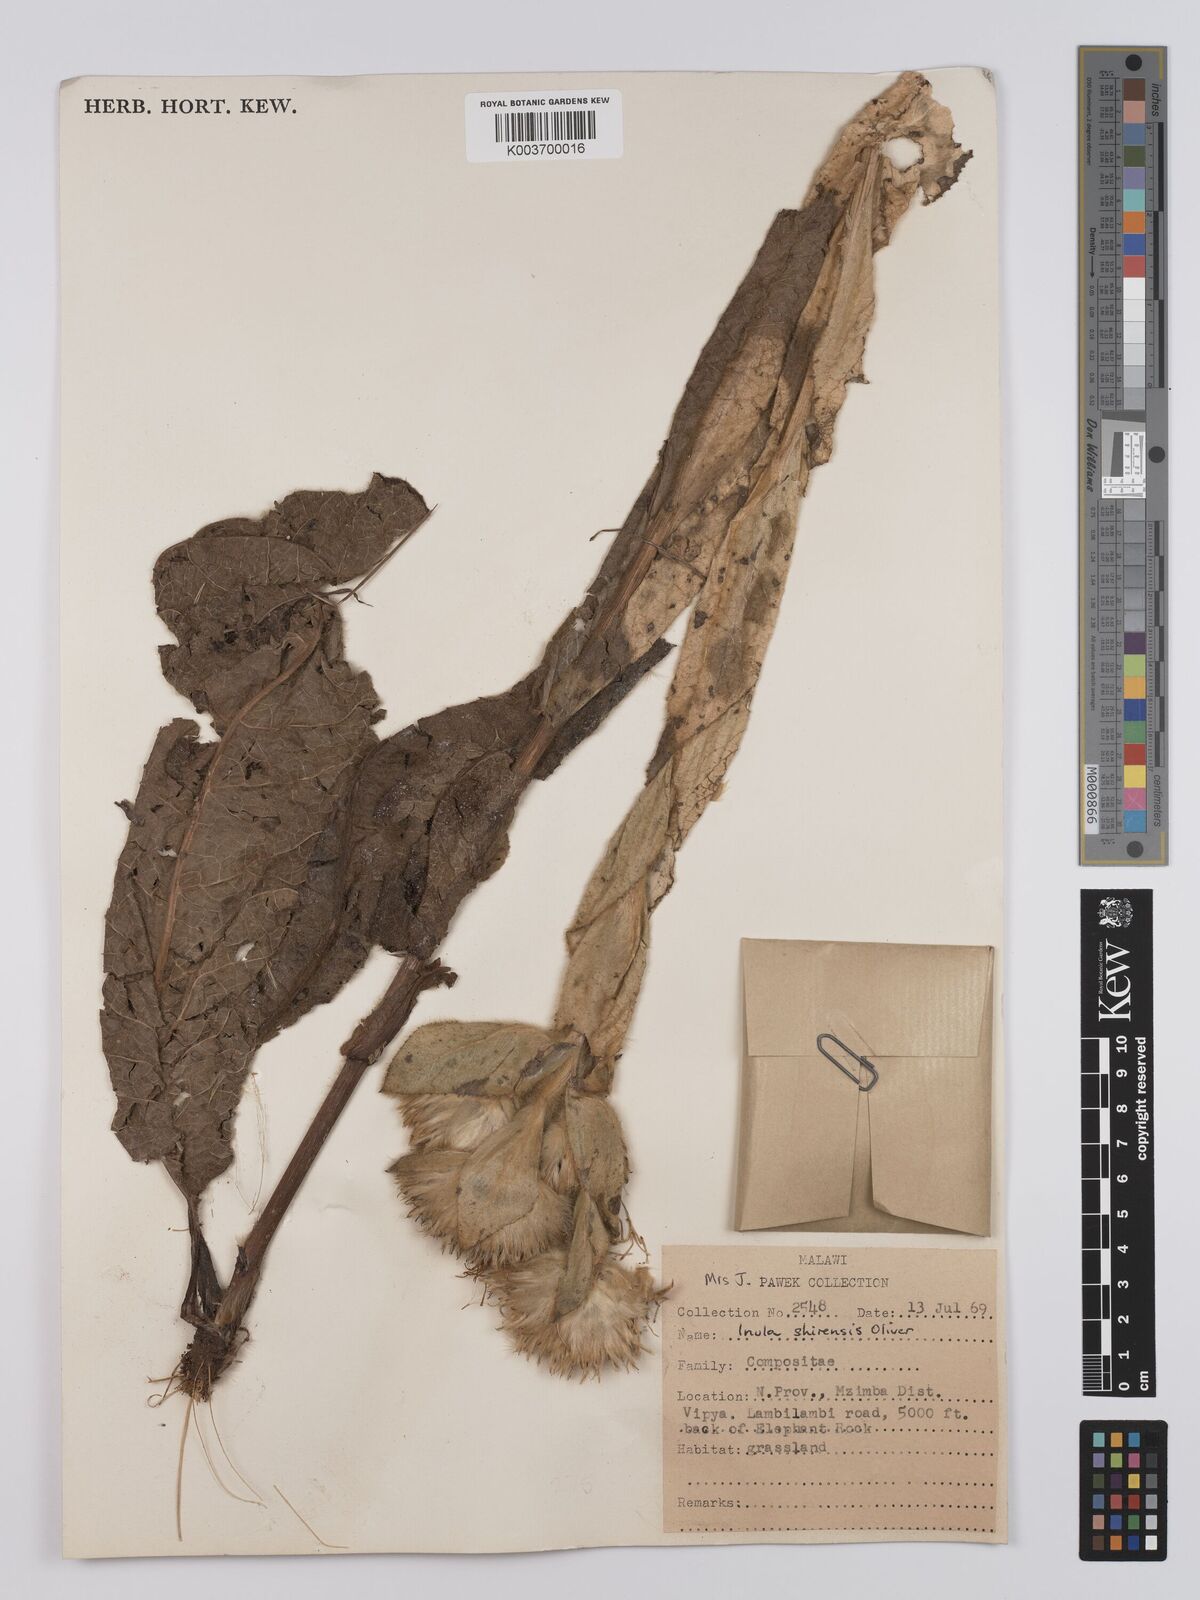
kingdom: Plantae
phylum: Tracheophyta
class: Magnoliopsida
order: Asterales
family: Asteraceae
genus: Monactinocephalus
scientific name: Monactinocephalus shirensis
